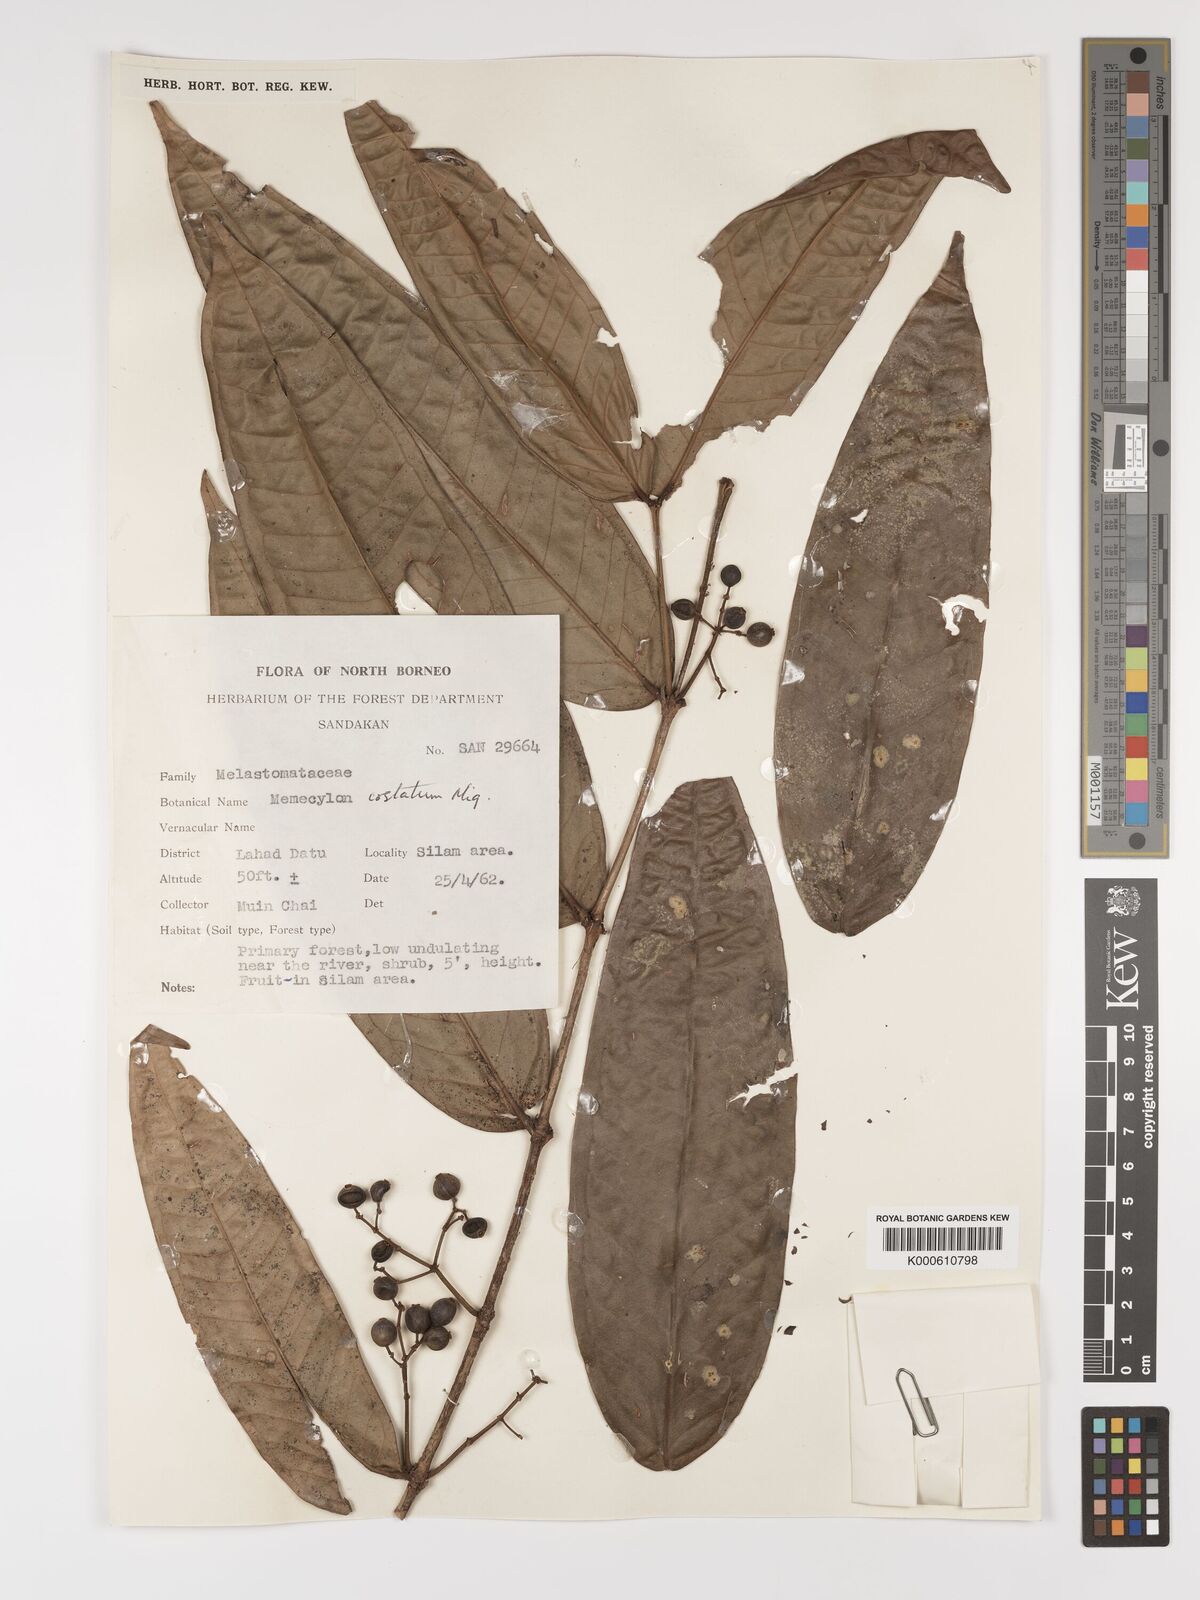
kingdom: Plantae
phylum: Tracheophyta
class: Magnoliopsida
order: Myrtales
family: Melastomataceae
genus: Memecylon
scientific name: Memecylon paniculatum
